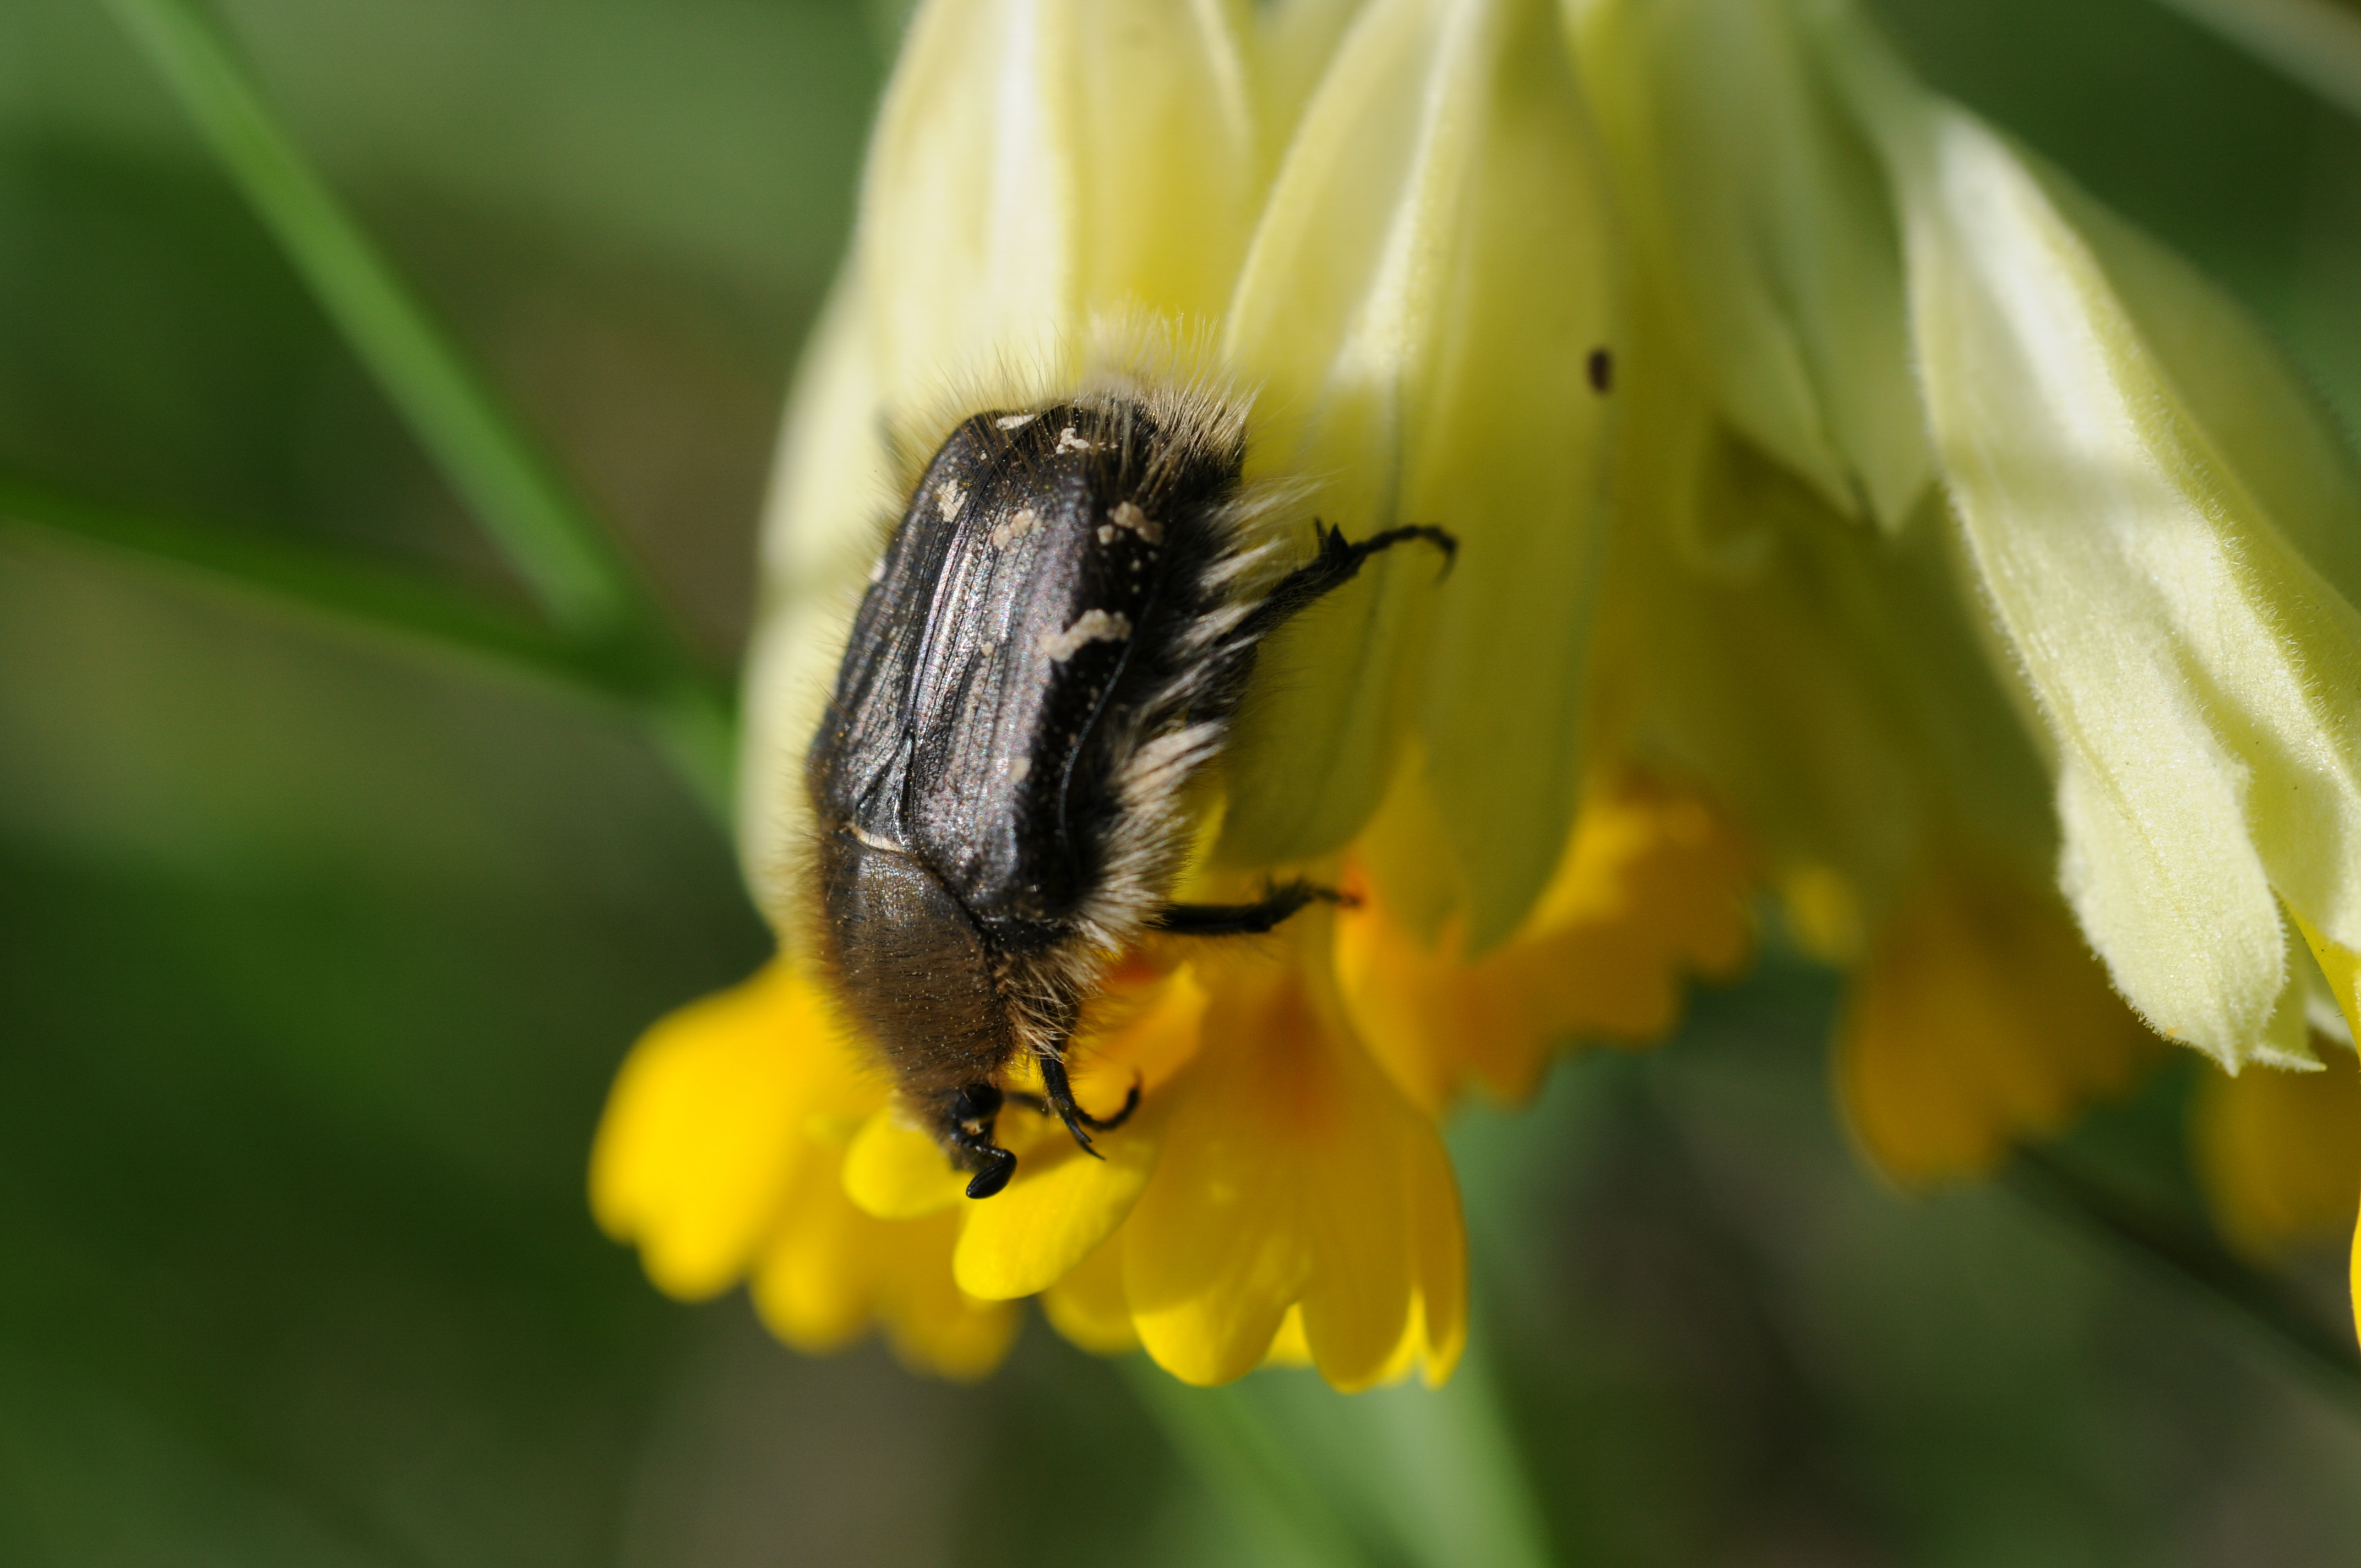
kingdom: Animalia
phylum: Arthropoda
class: Insecta
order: Coleoptera
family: Scarabaeidae
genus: Tropinota
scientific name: Tropinota hirta
